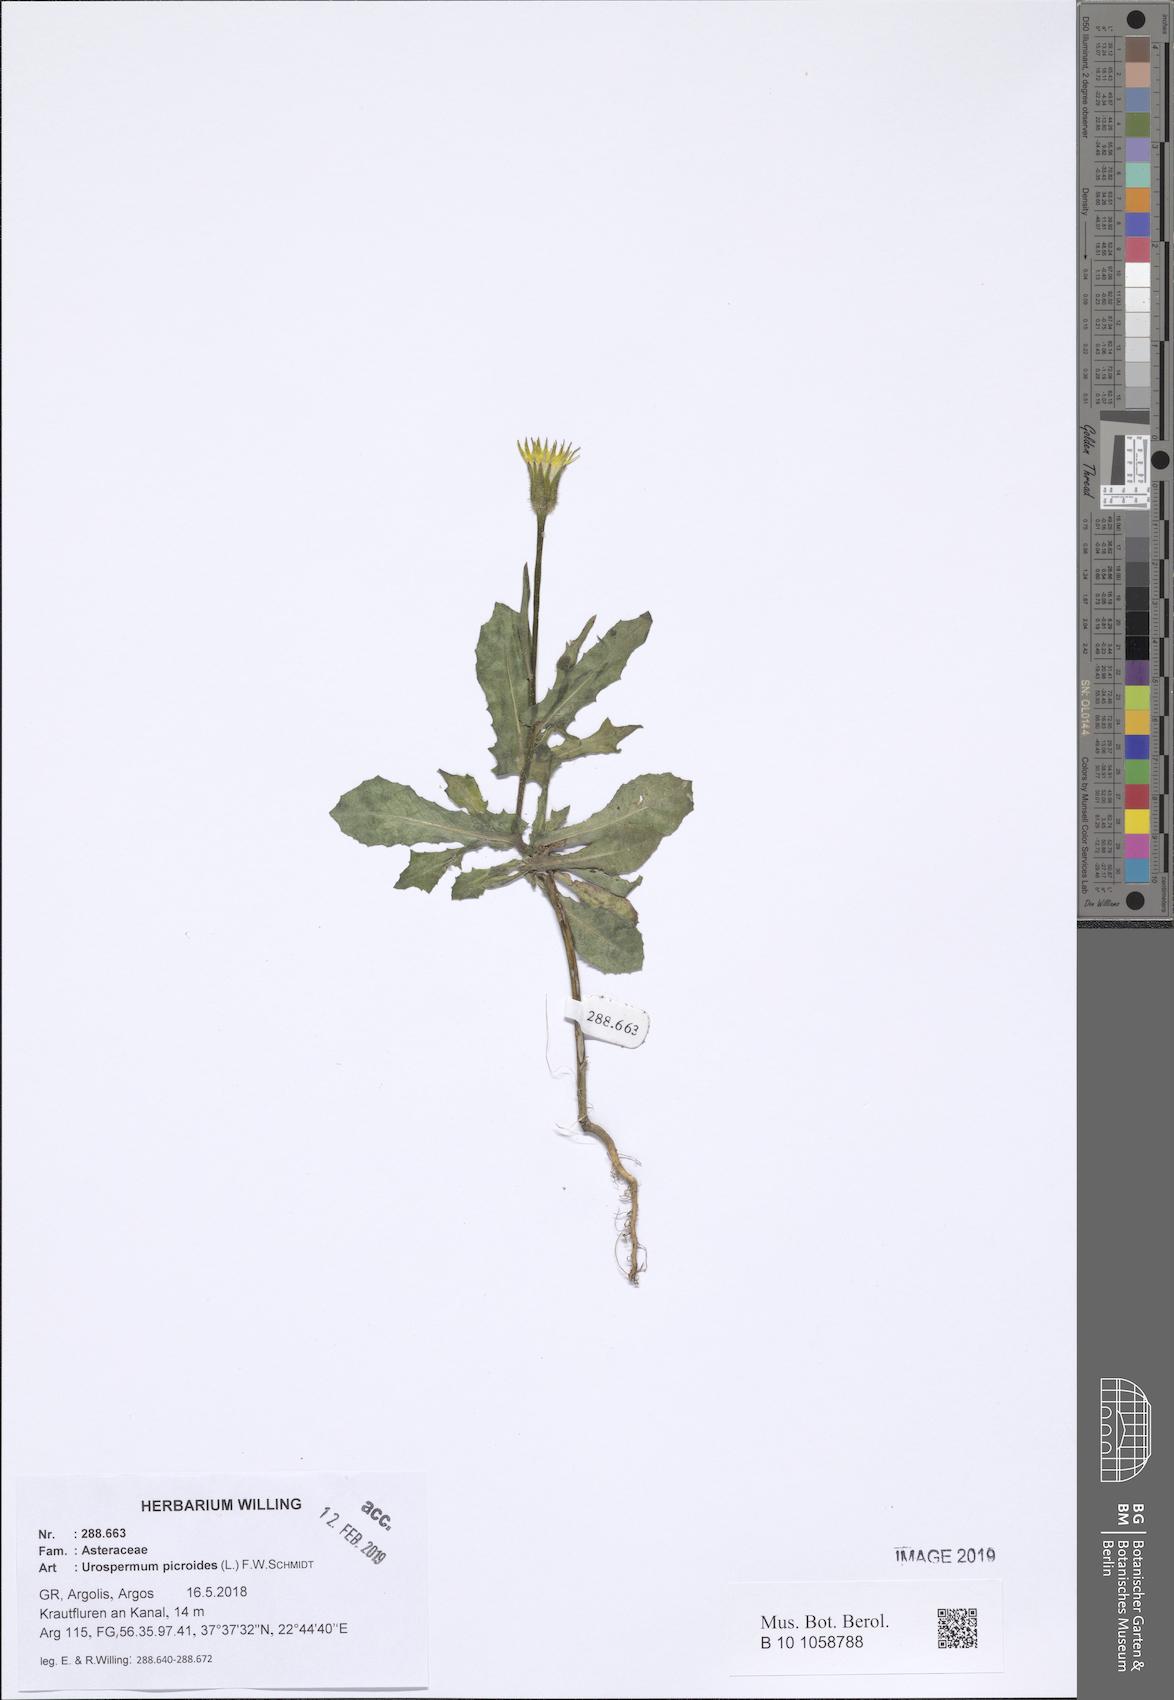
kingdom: Plantae
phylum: Tracheophyta
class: Magnoliopsida
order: Asterales
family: Asteraceae
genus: Urospermum
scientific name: Urospermum picroides
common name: False hawkbit
